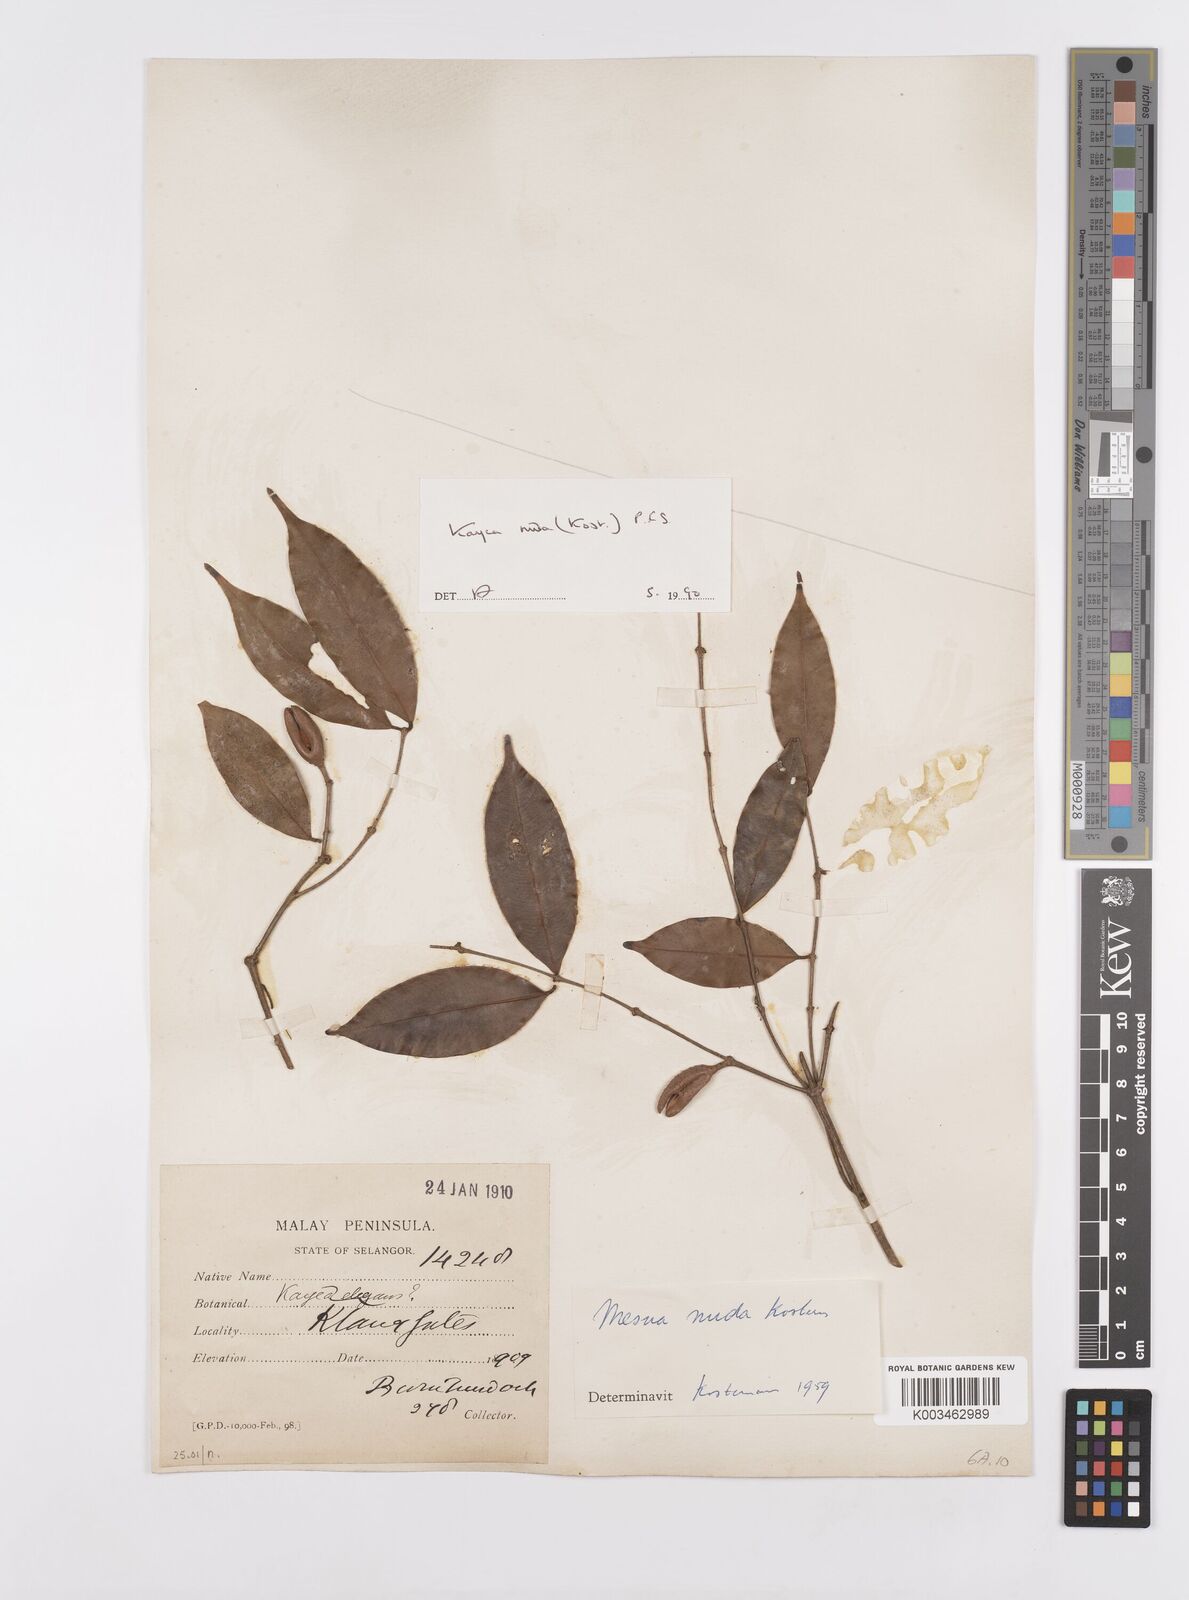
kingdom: Plantae
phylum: Tracheophyta
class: Magnoliopsida
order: Malpighiales
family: Calophyllaceae
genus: Kayea
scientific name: Kayea
